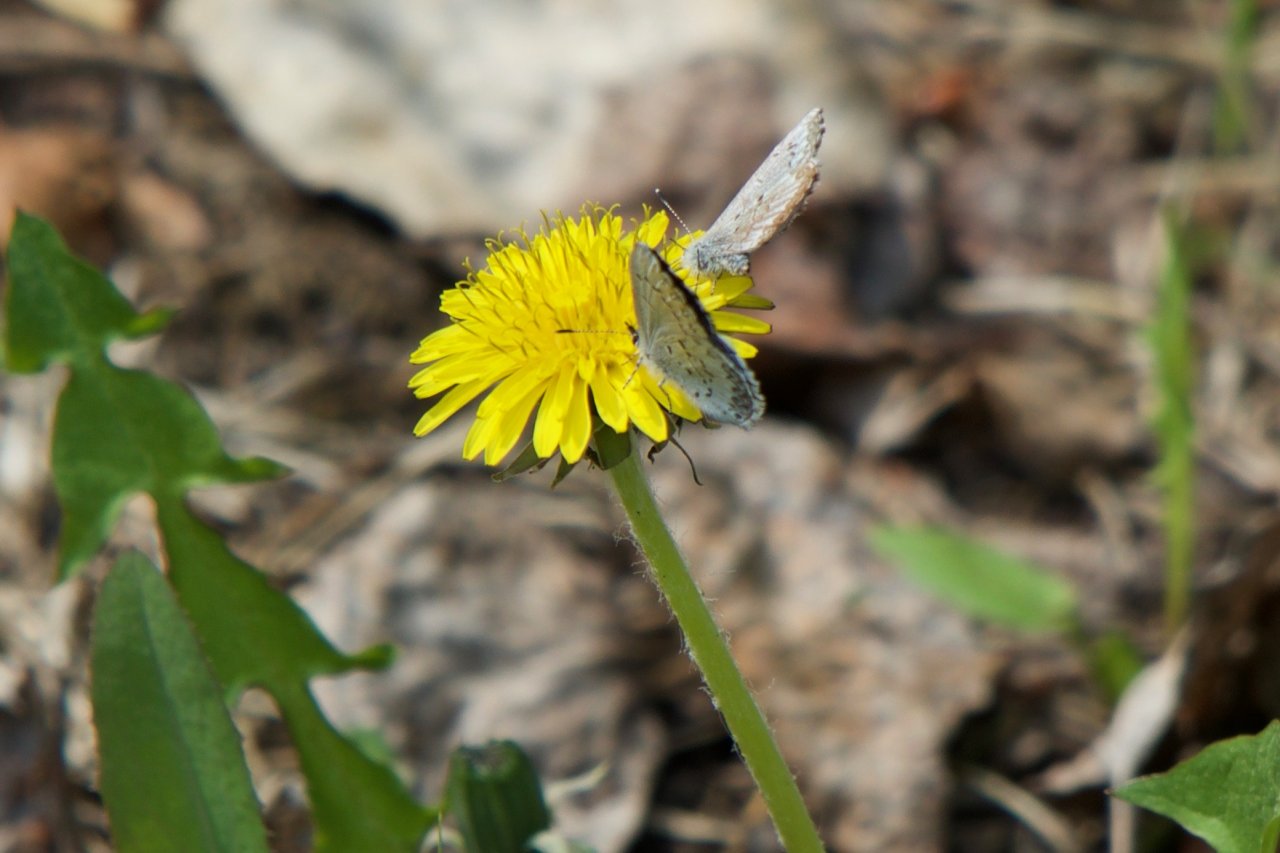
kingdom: Animalia
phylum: Arthropoda
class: Insecta
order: Lepidoptera
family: Lycaenidae
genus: Celastrina
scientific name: Celastrina lucia
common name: Northern Spring Azure
